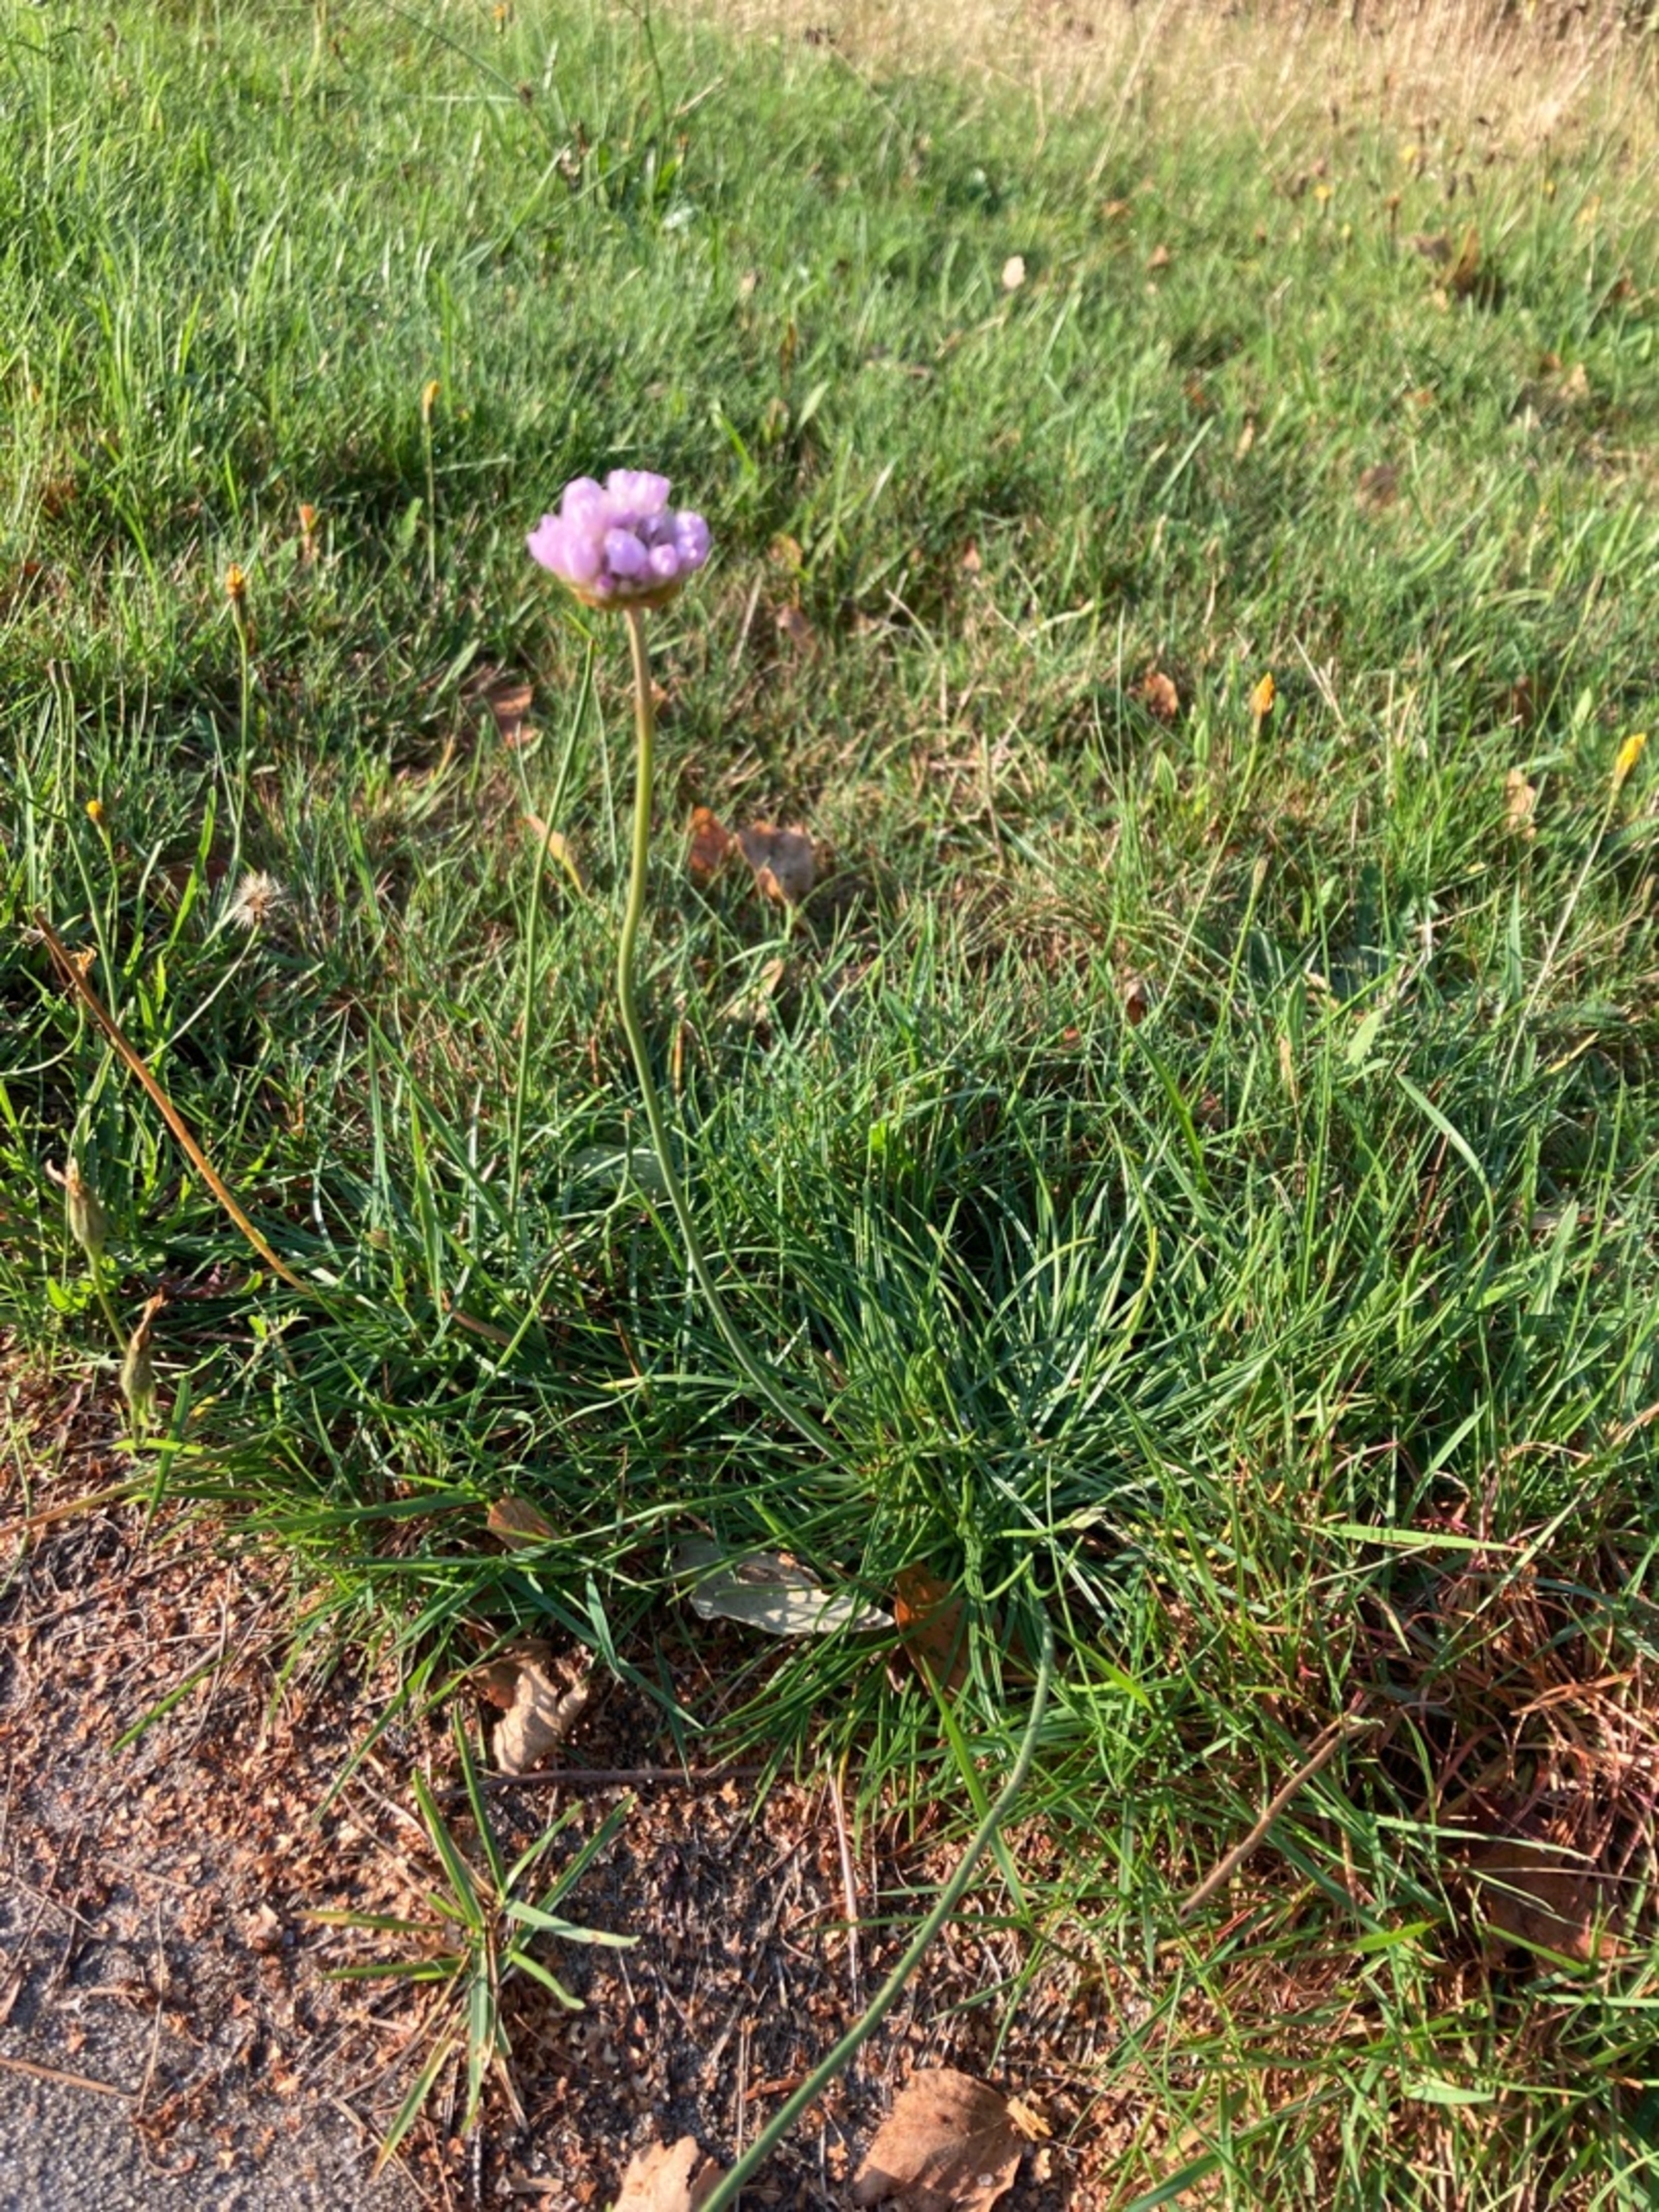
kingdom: Plantae
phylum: Tracheophyta
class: Magnoliopsida
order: Caryophyllales
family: Plumbaginaceae
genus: Armeria
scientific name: Armeria maritima
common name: Engelskgræs
